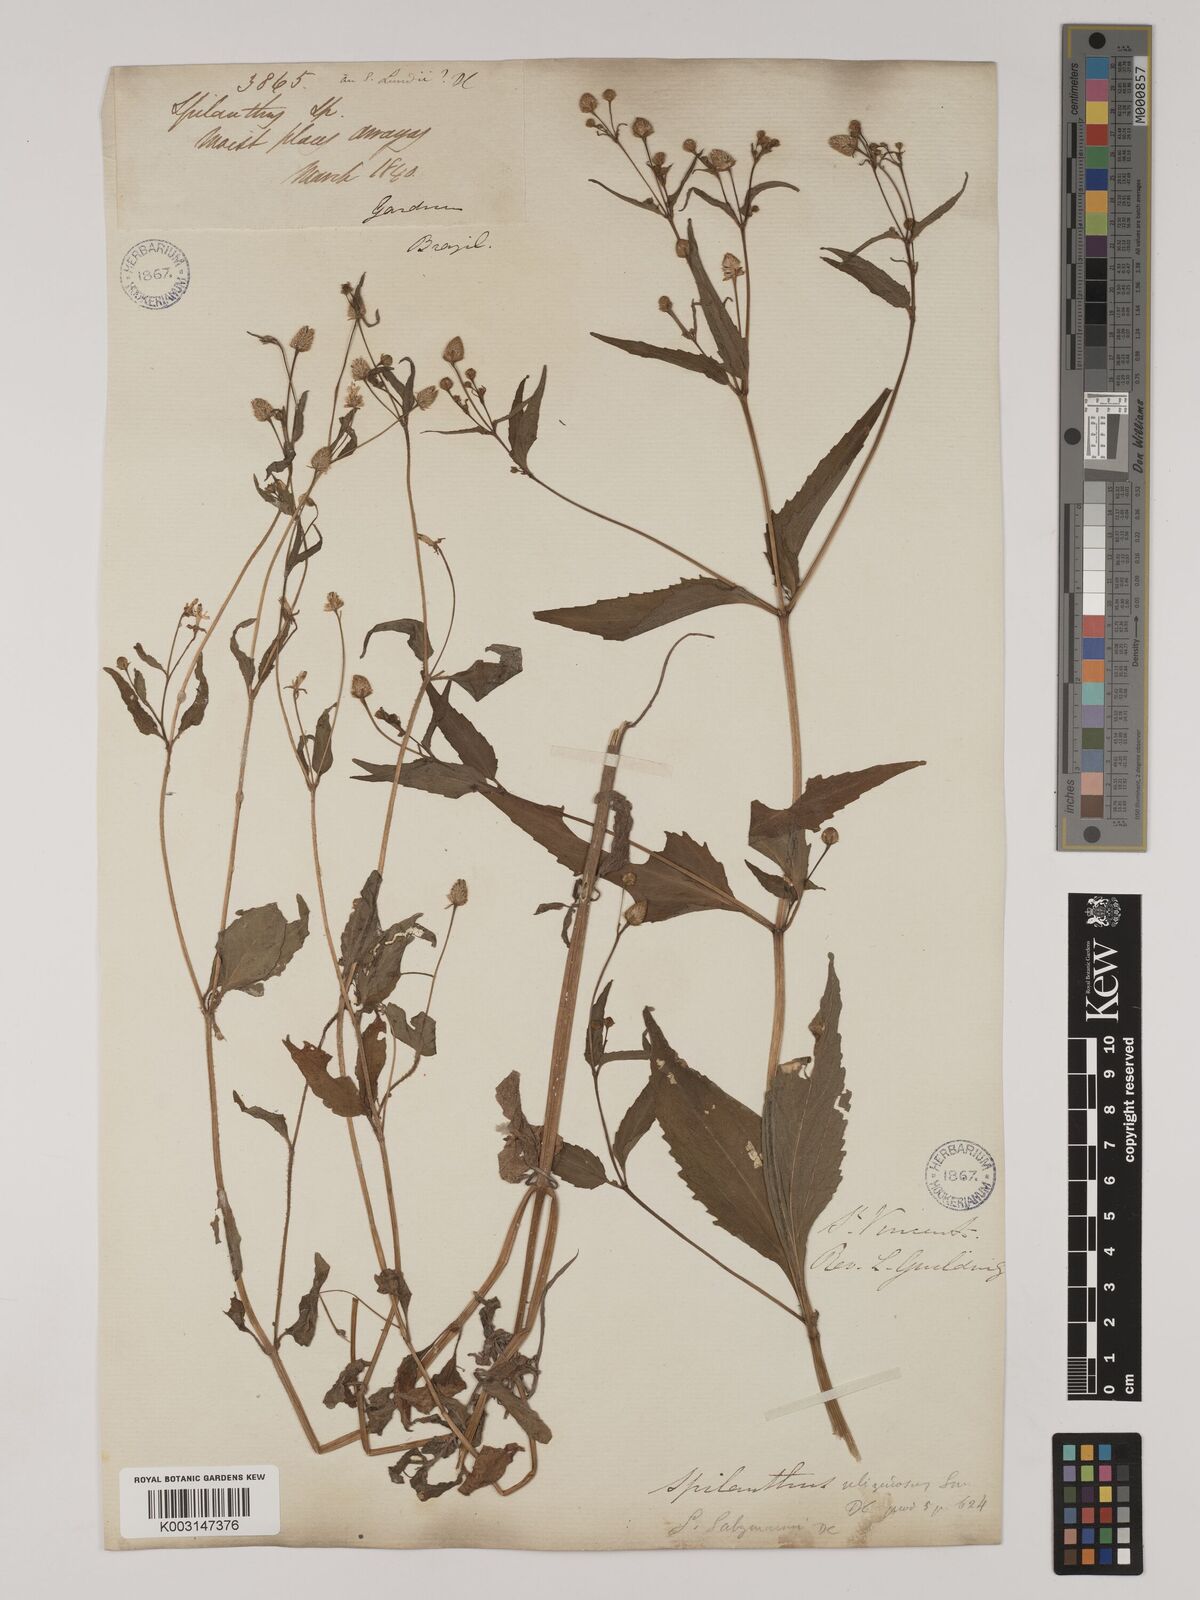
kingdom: Plantae
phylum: Tracheophyta
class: Magnoliopsida
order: Asterales
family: Asteraceae
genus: Acmella
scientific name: Acmella uliginosa
